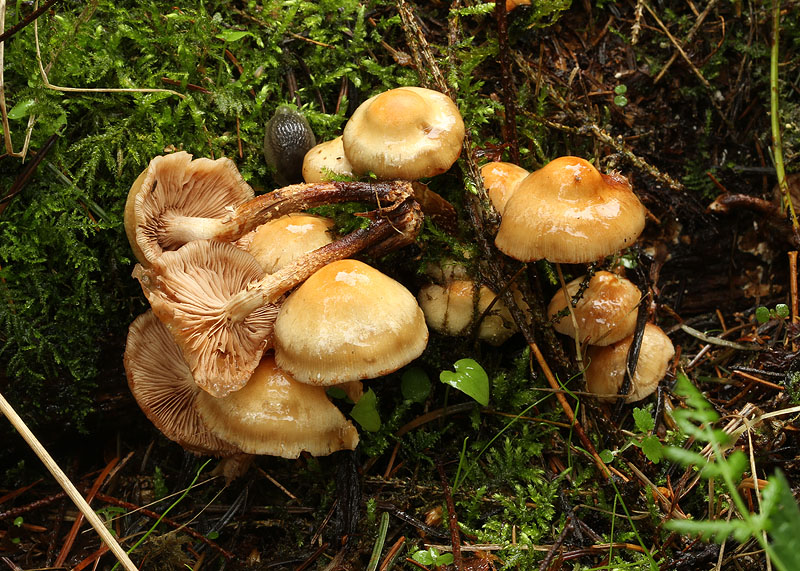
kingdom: Fungi
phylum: Basidiomycota
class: Agaricomycetes
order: Agaricales
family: Strophariaceae
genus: Kuehneromyces
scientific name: Kuehneromyces mutabilis
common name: foranderlig skælhat
